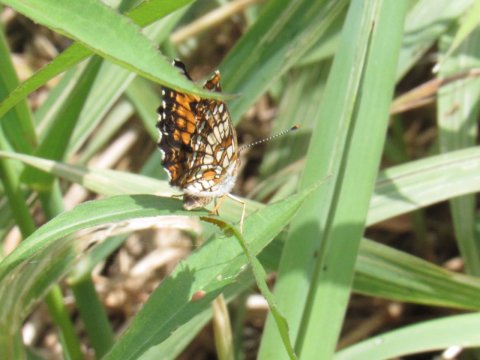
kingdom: Animalia
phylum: Arthropoda
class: Insecta
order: Lepidoptera
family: Nymphalidae
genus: Chlosyne
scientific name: Chlosyne harrisii
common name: Harris's Checkerspot
